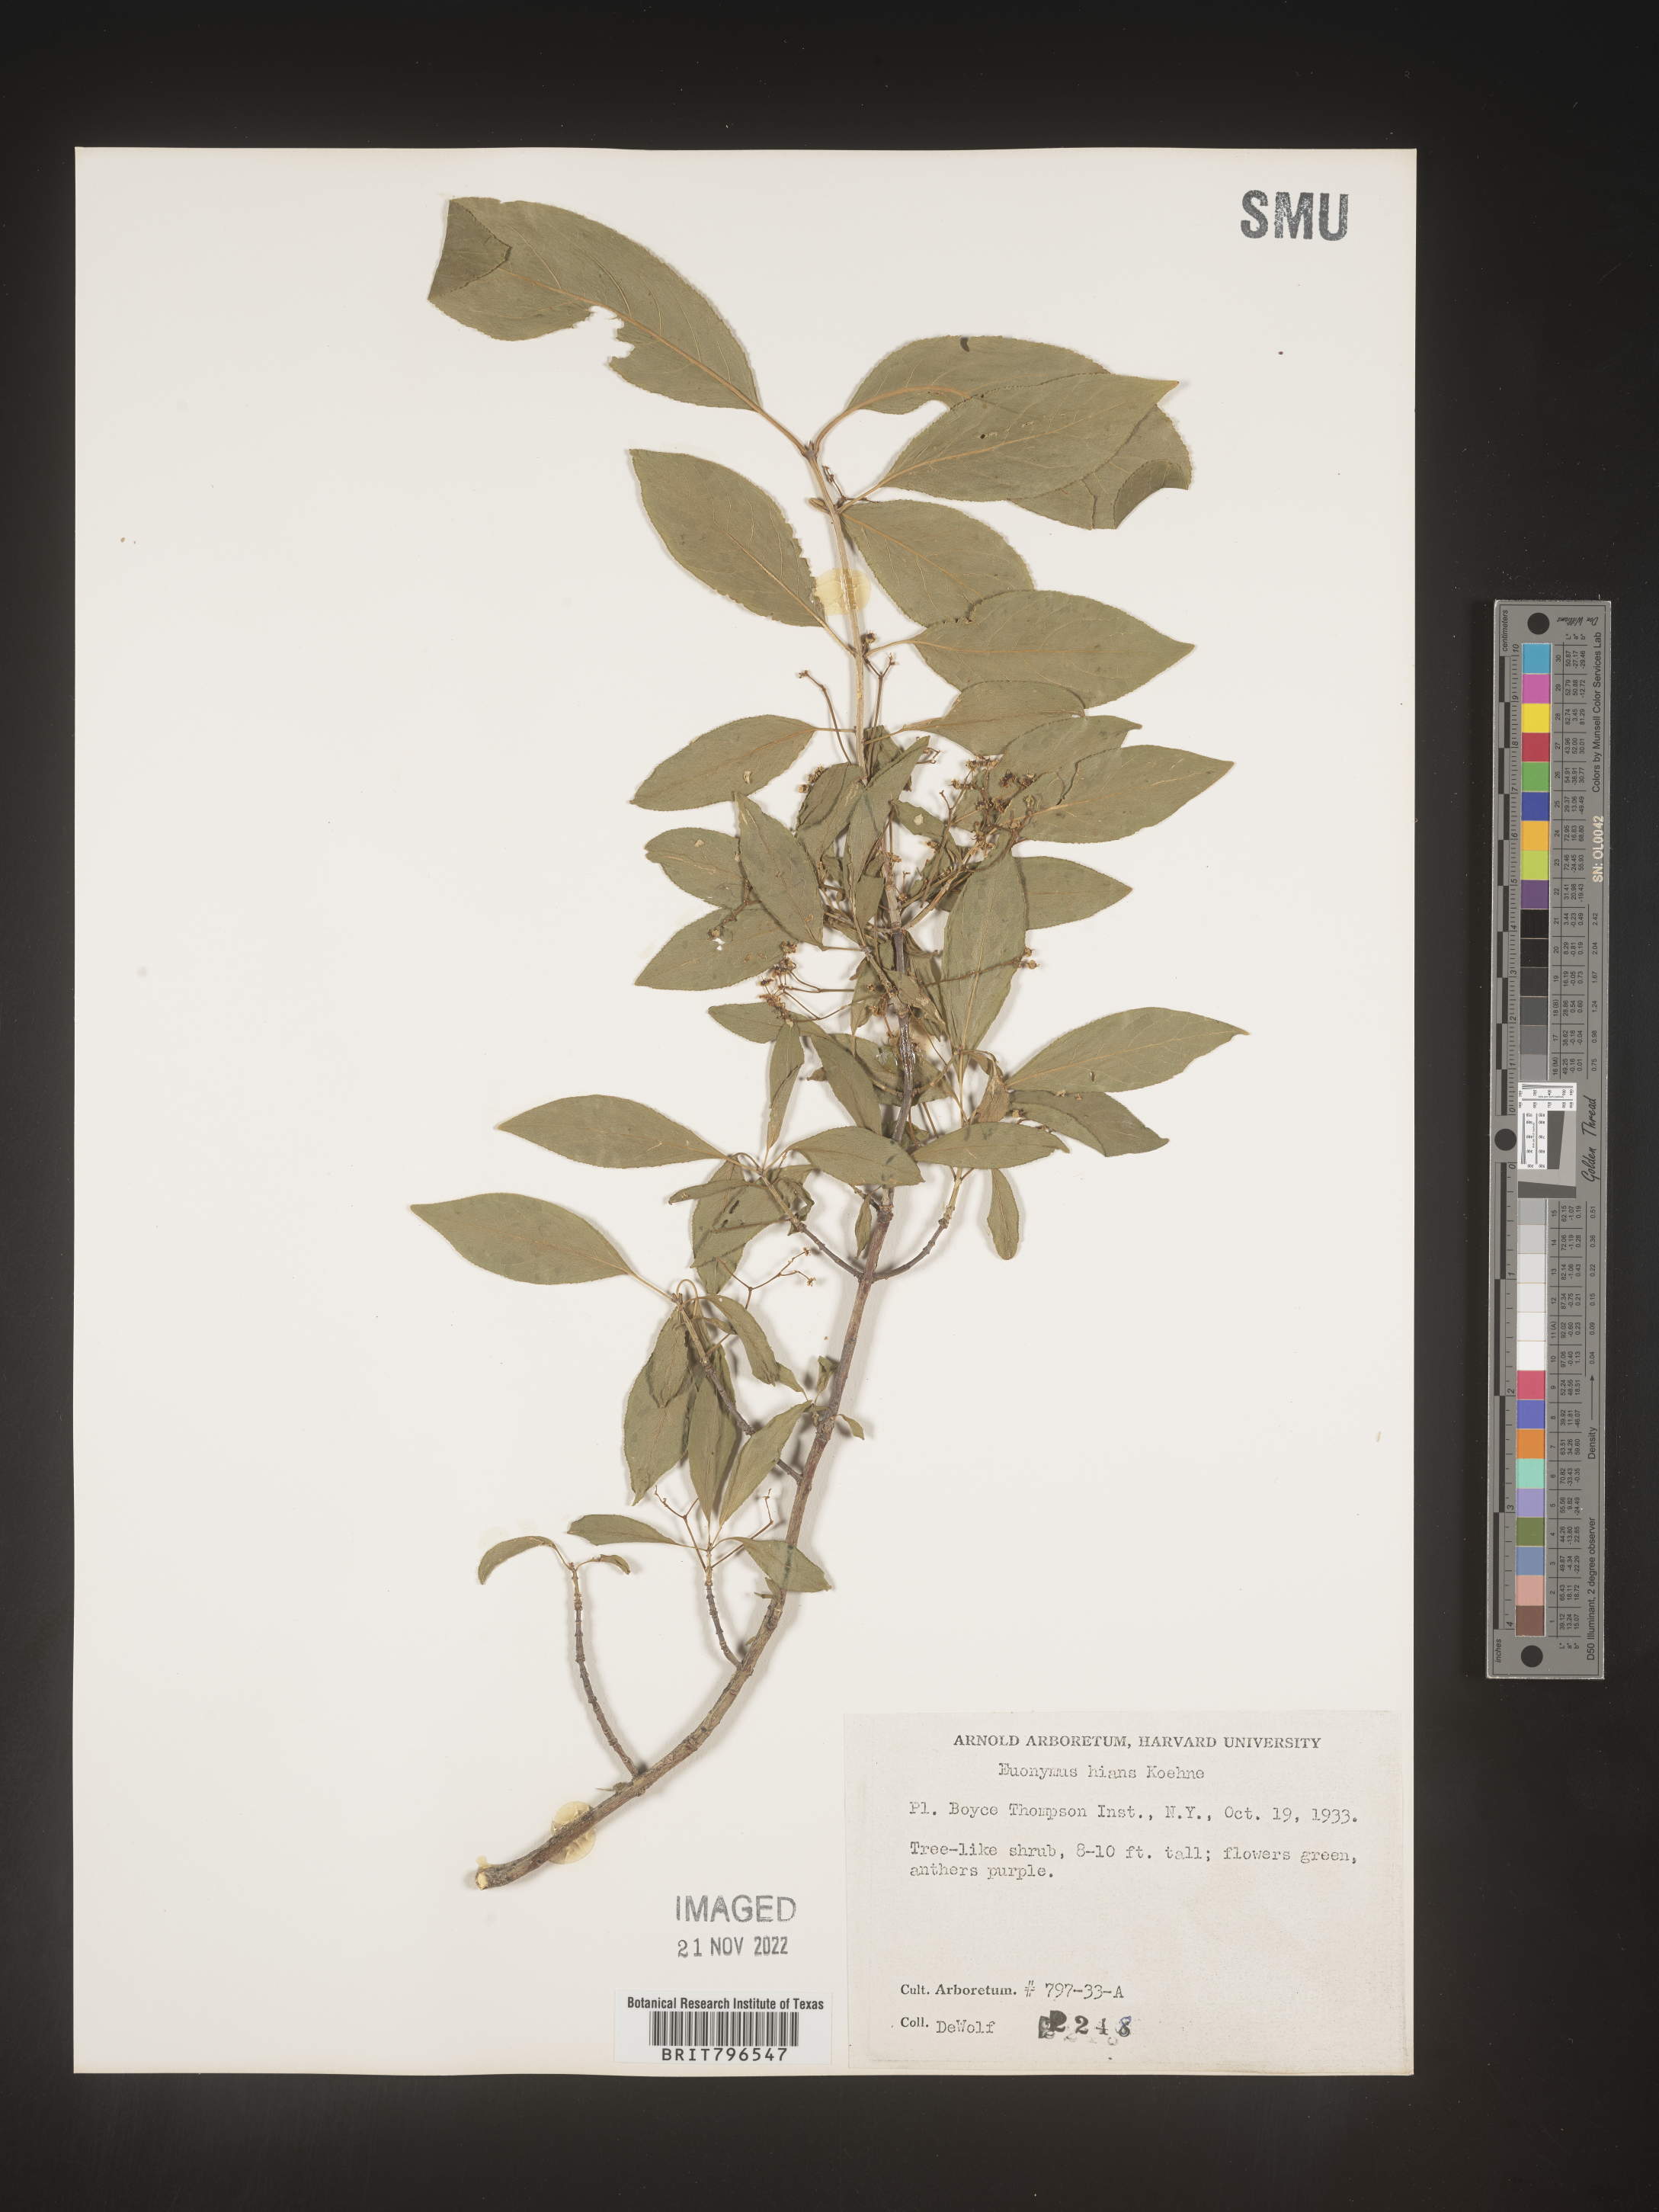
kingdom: Plantae
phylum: Tracheophyta
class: Magnoliopsida
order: Celastrales
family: Celastraceae
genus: Euonymus
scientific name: Euonymus
